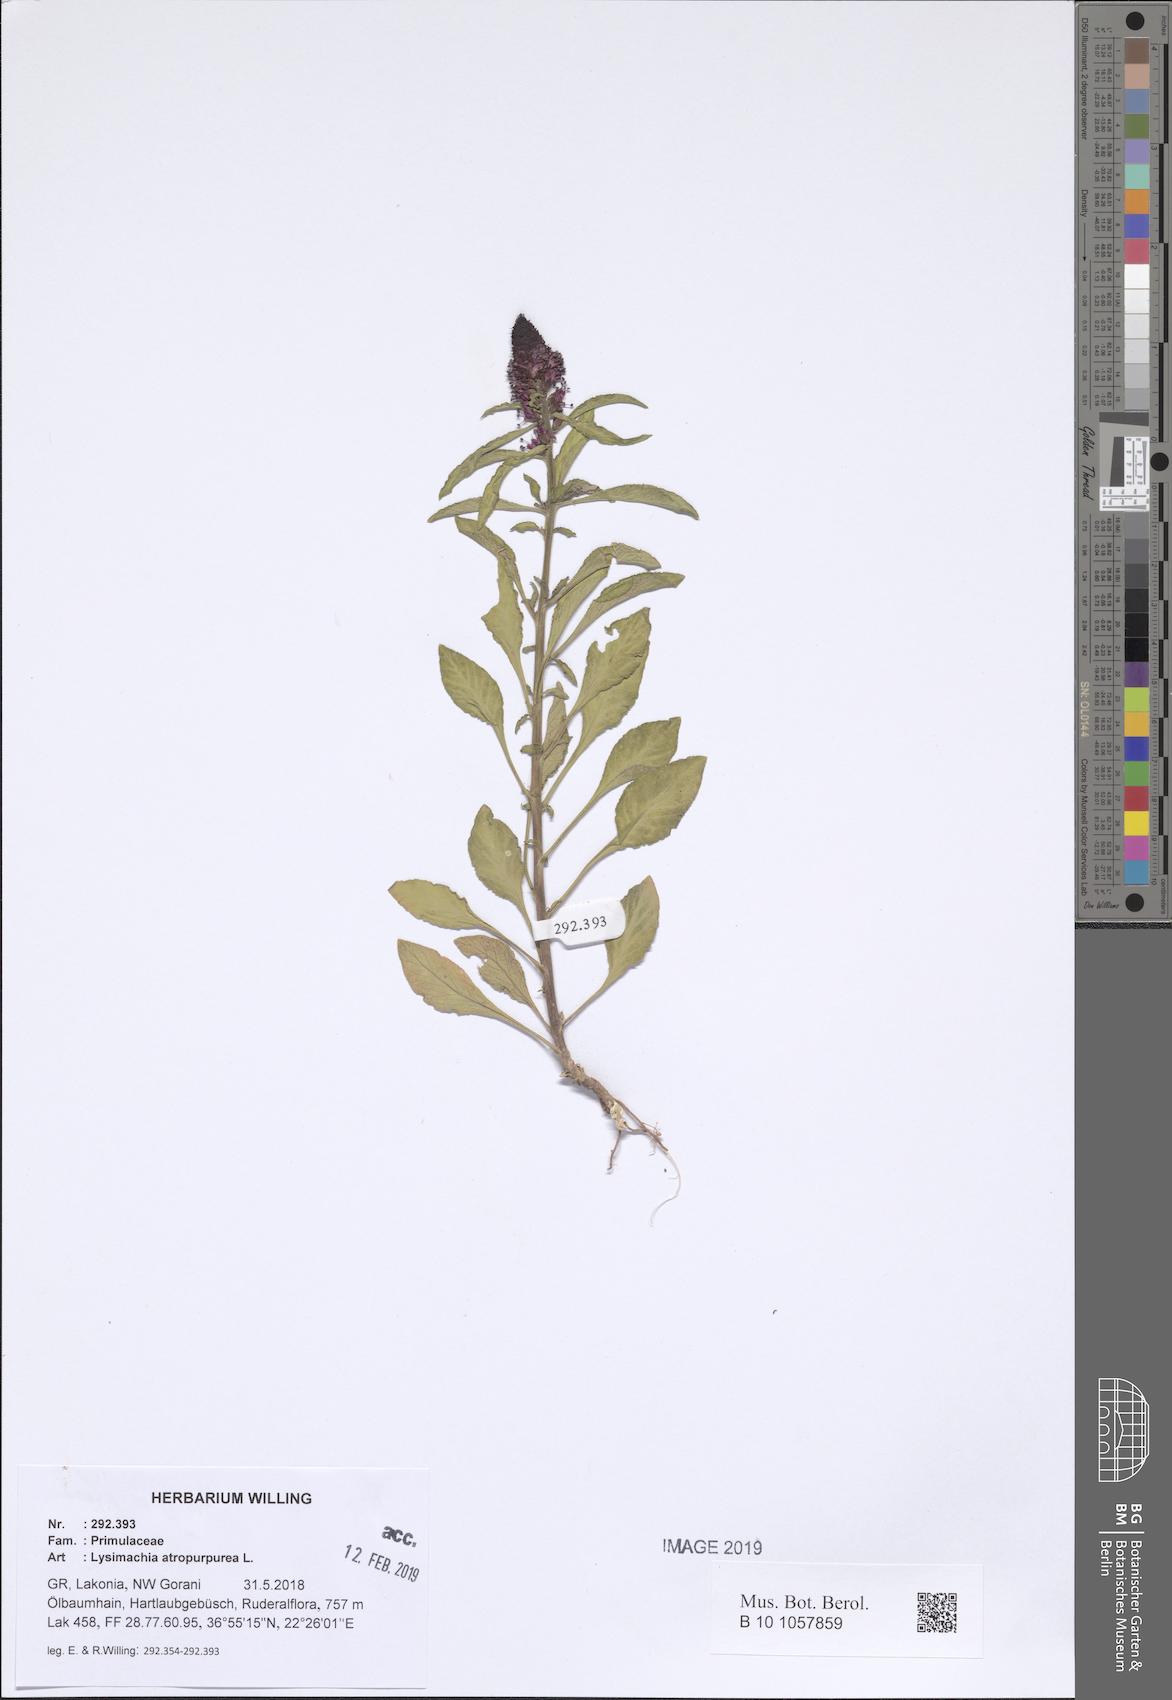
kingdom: Plantae
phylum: Tracheophyta
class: Magnoliopsida
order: Ericales
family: Primulaceae
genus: Lysimachia
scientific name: Lysimachia atropurpurea
